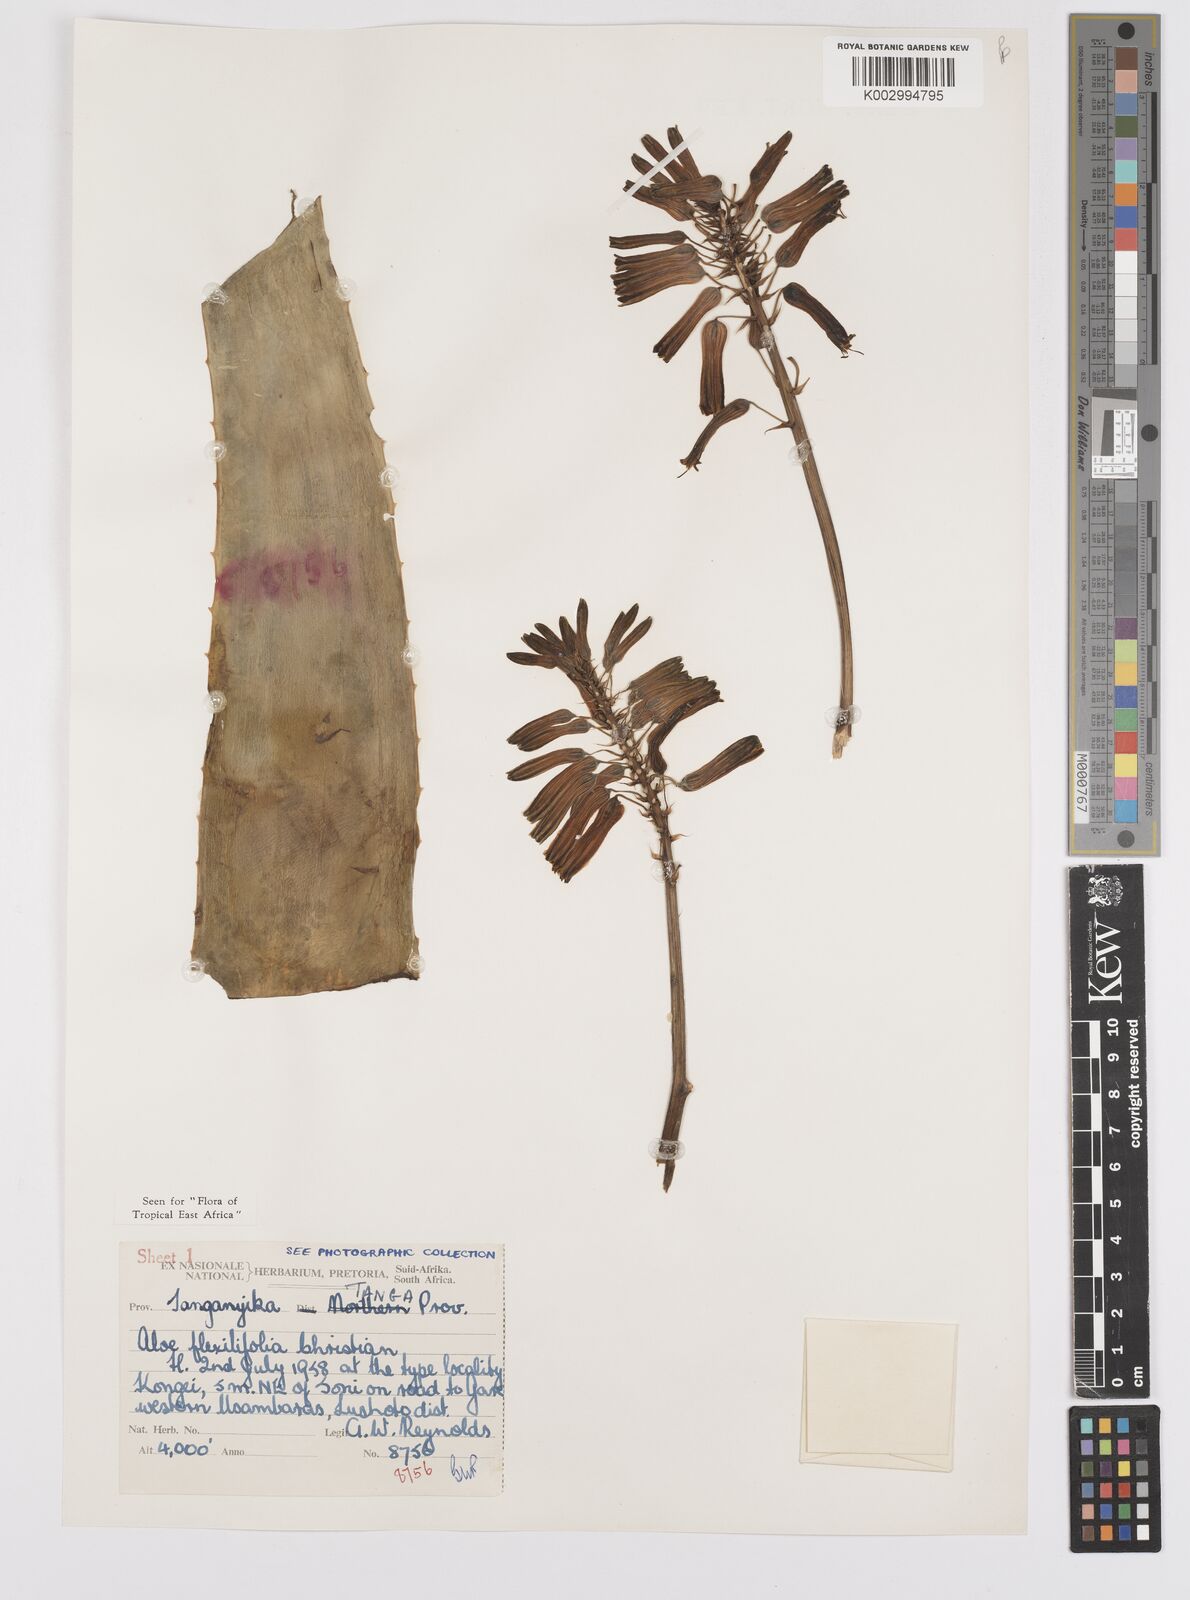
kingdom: Plantae
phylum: Tracheophyta
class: Liliopsida
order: Asparagales
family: Asphodelaceae
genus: Aloe
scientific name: Aloe flexilifolia
